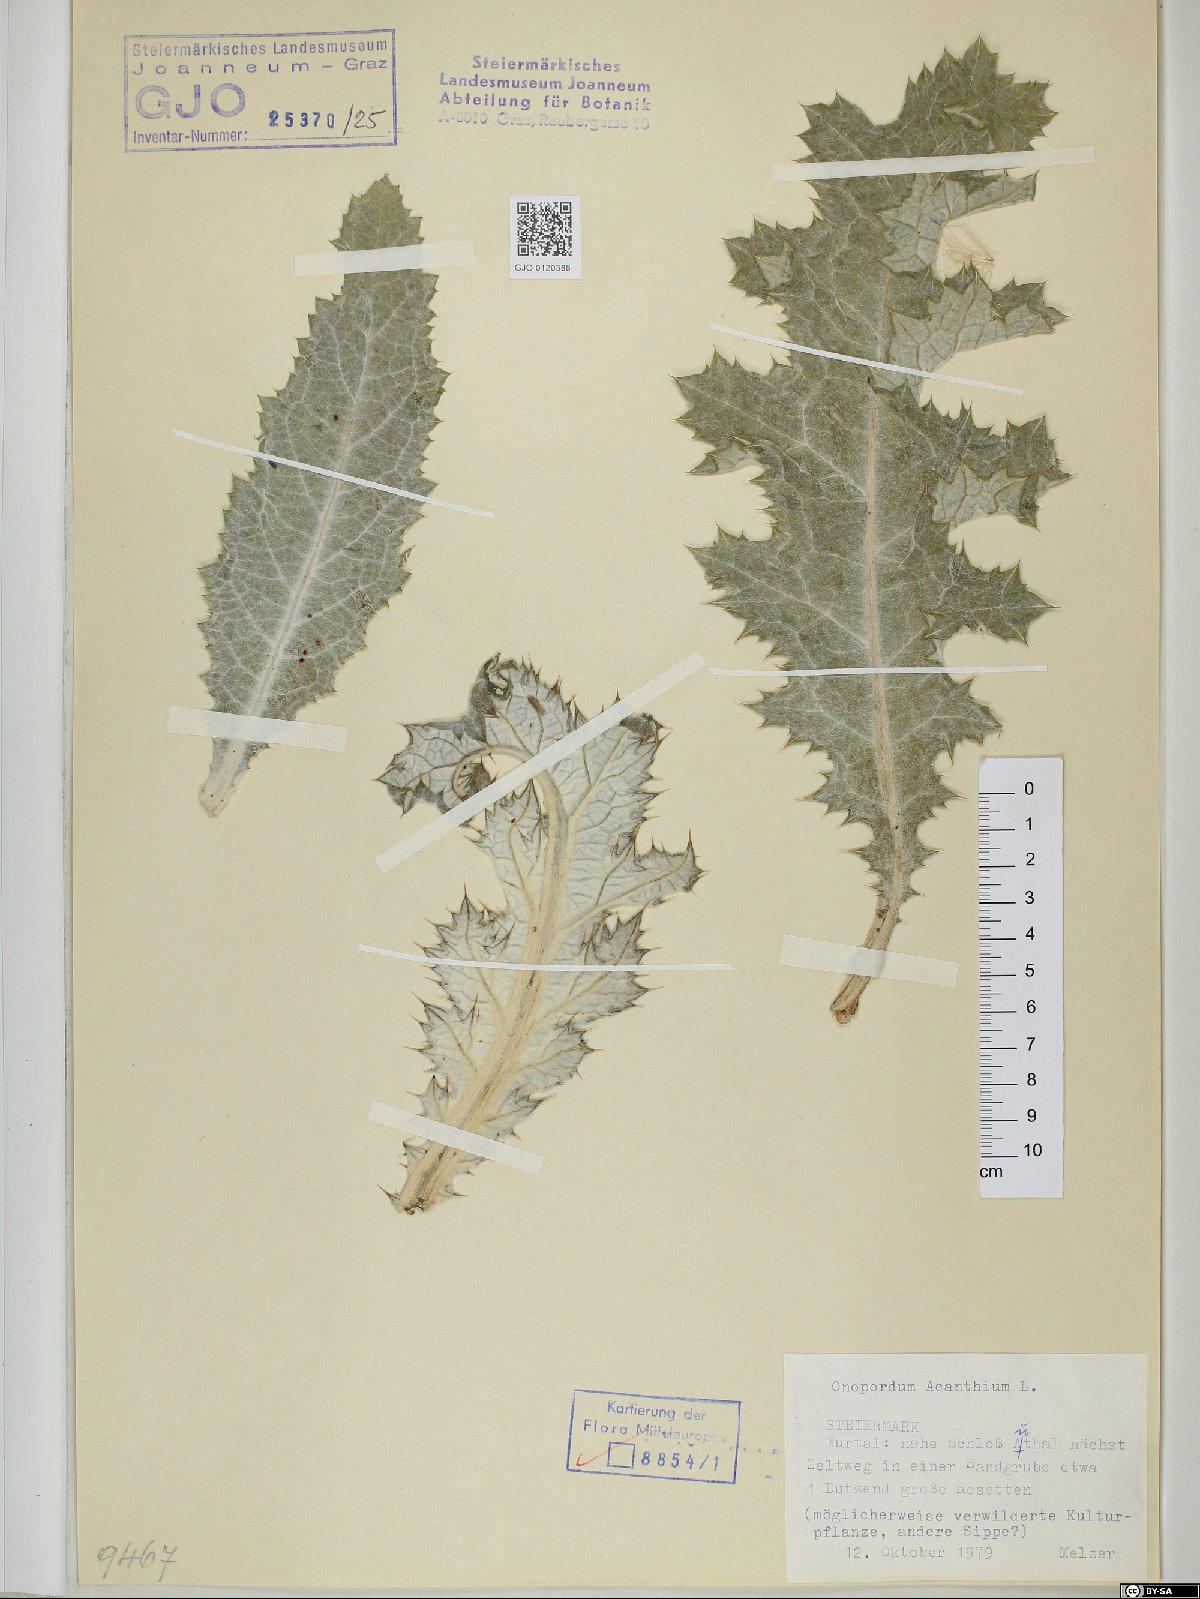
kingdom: Plantae
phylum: Tracheophyta
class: Magnoliopsida
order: Asterales
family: Asteraceae
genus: Onopordum
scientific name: Onopordum acanthium
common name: Scotch thistle
